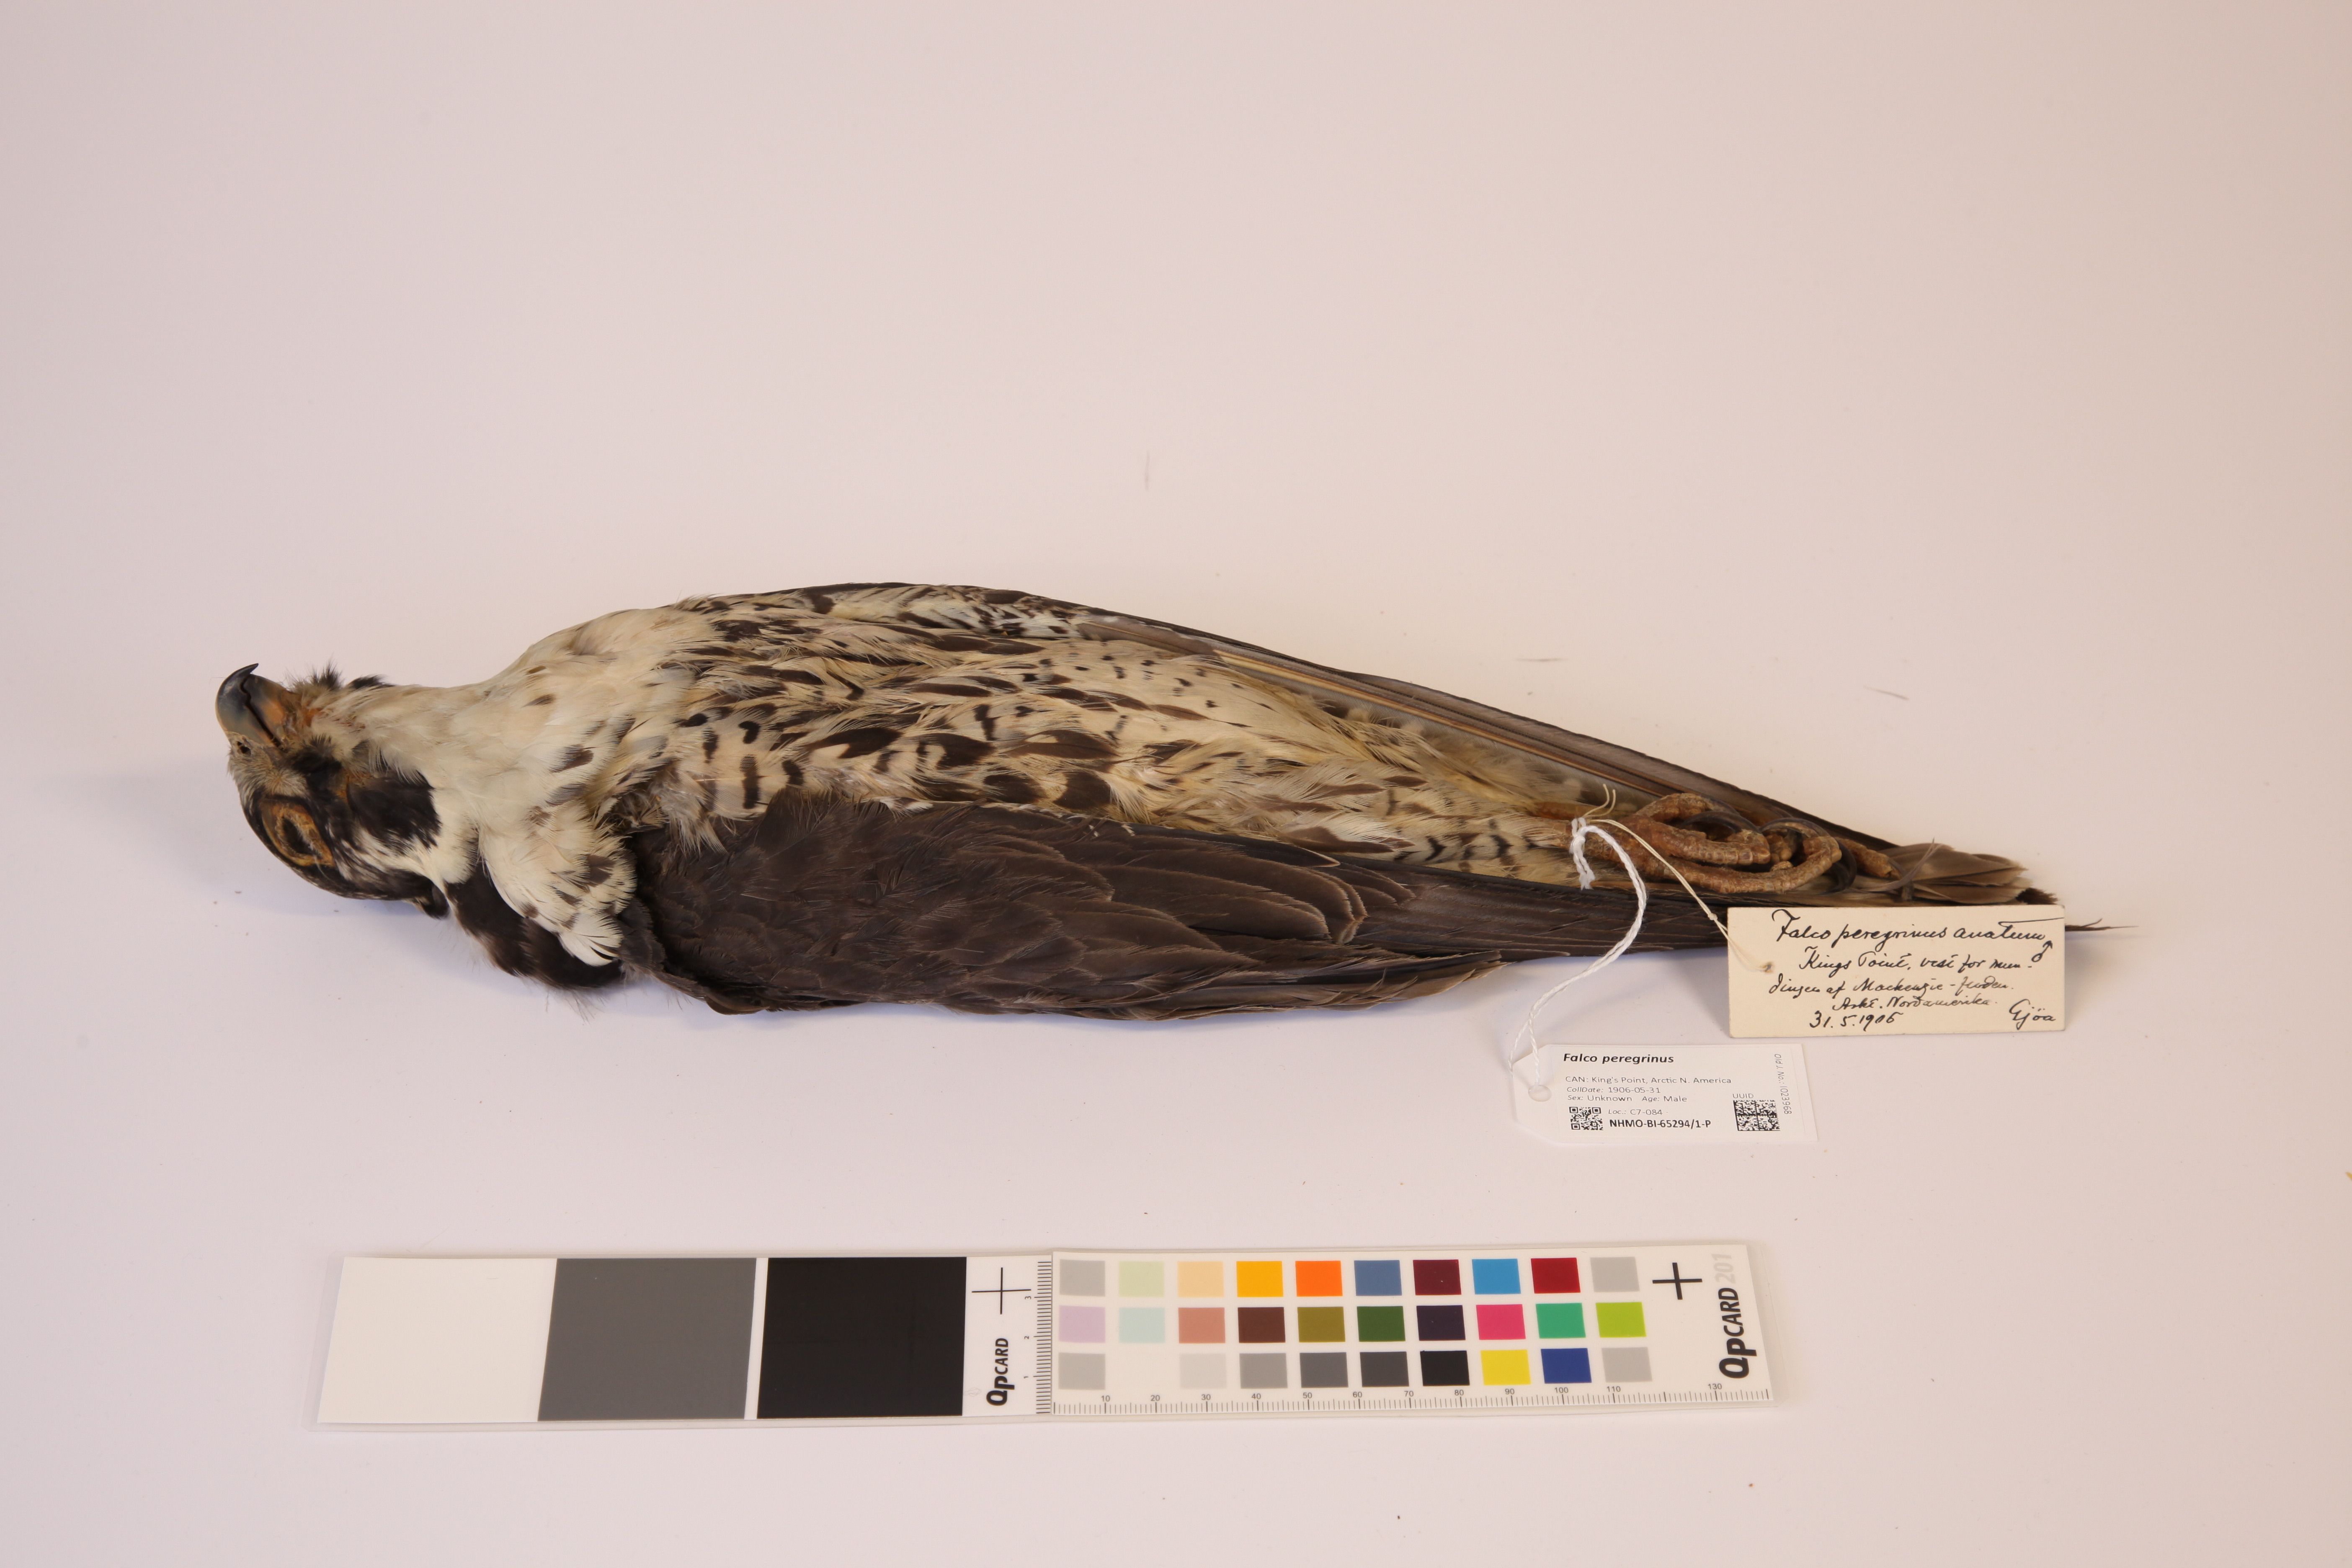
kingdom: Animalia
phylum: Chordata
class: Aves
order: Falconiformes
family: Falconidae
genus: Falco
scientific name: Falco peregrinus
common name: Peregrine falcon
